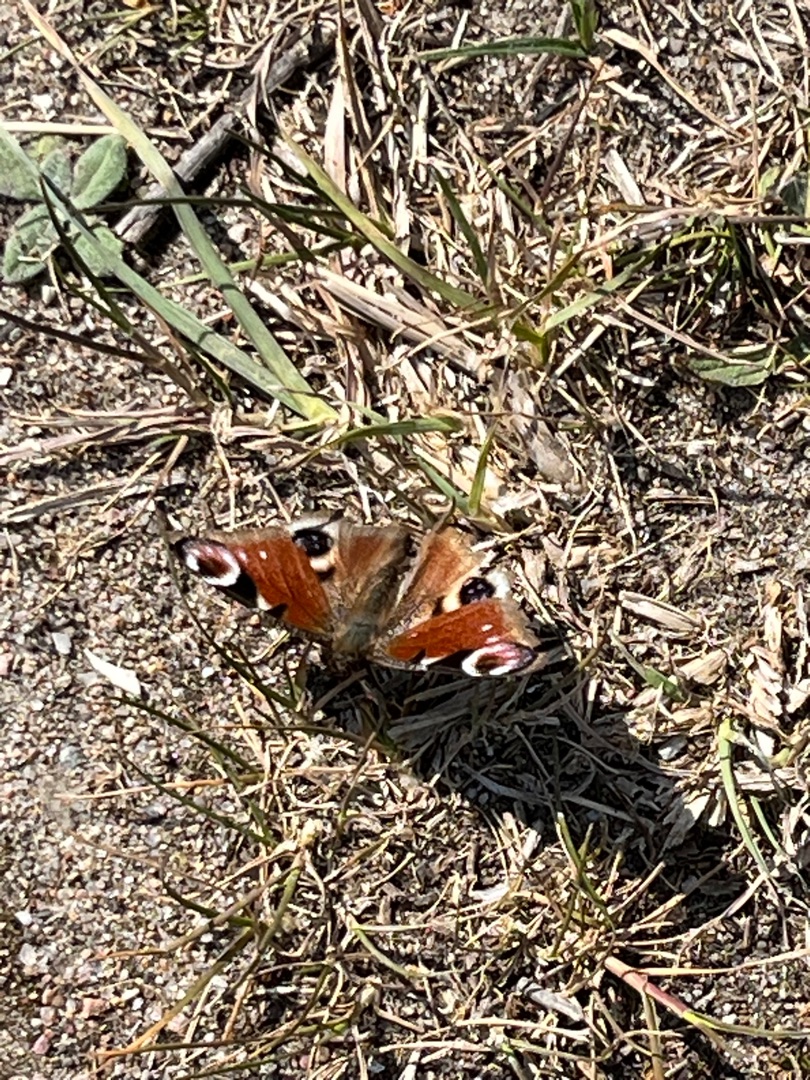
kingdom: Animalia
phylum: Arthropoda
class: Insecta
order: Lepidoptera
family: Nymphalidae
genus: Aglais
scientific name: Aglais io
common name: Dagpåfugleøje
